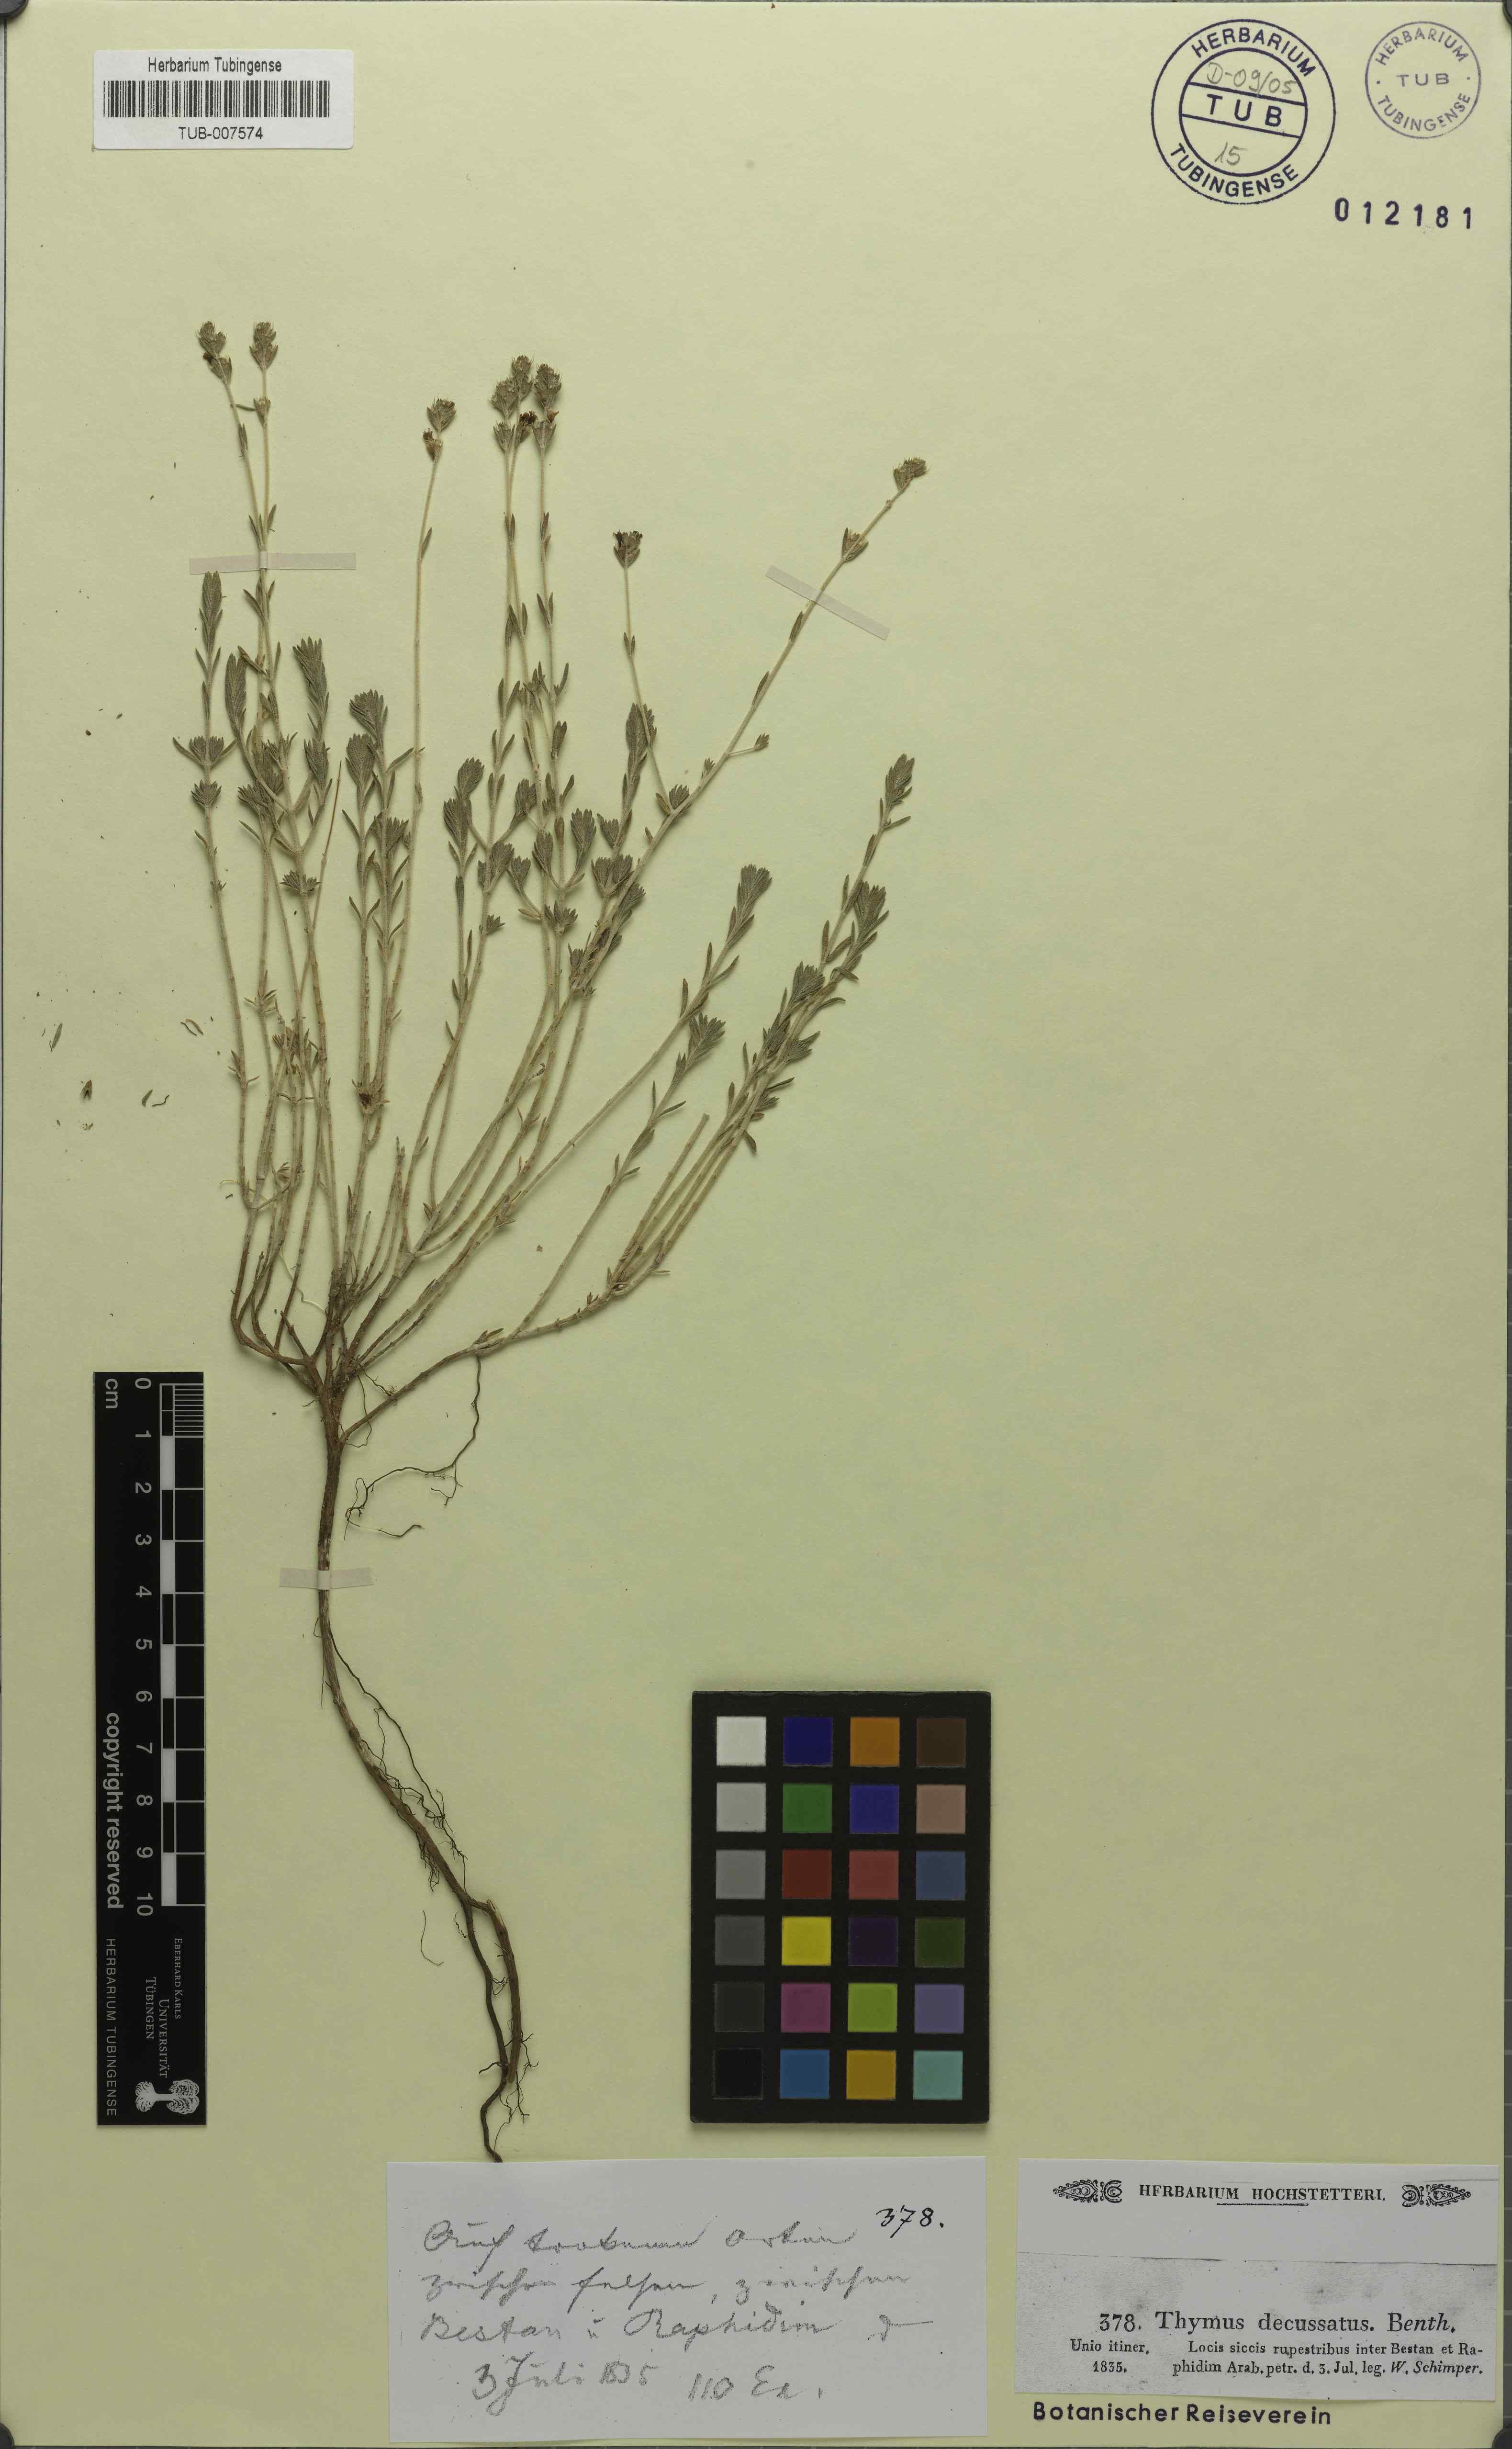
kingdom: Plantae
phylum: Tracheophyta
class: Magnoliopsida
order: Lamiales
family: Lamiaceae
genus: Thymus
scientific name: Thymus decussatus
